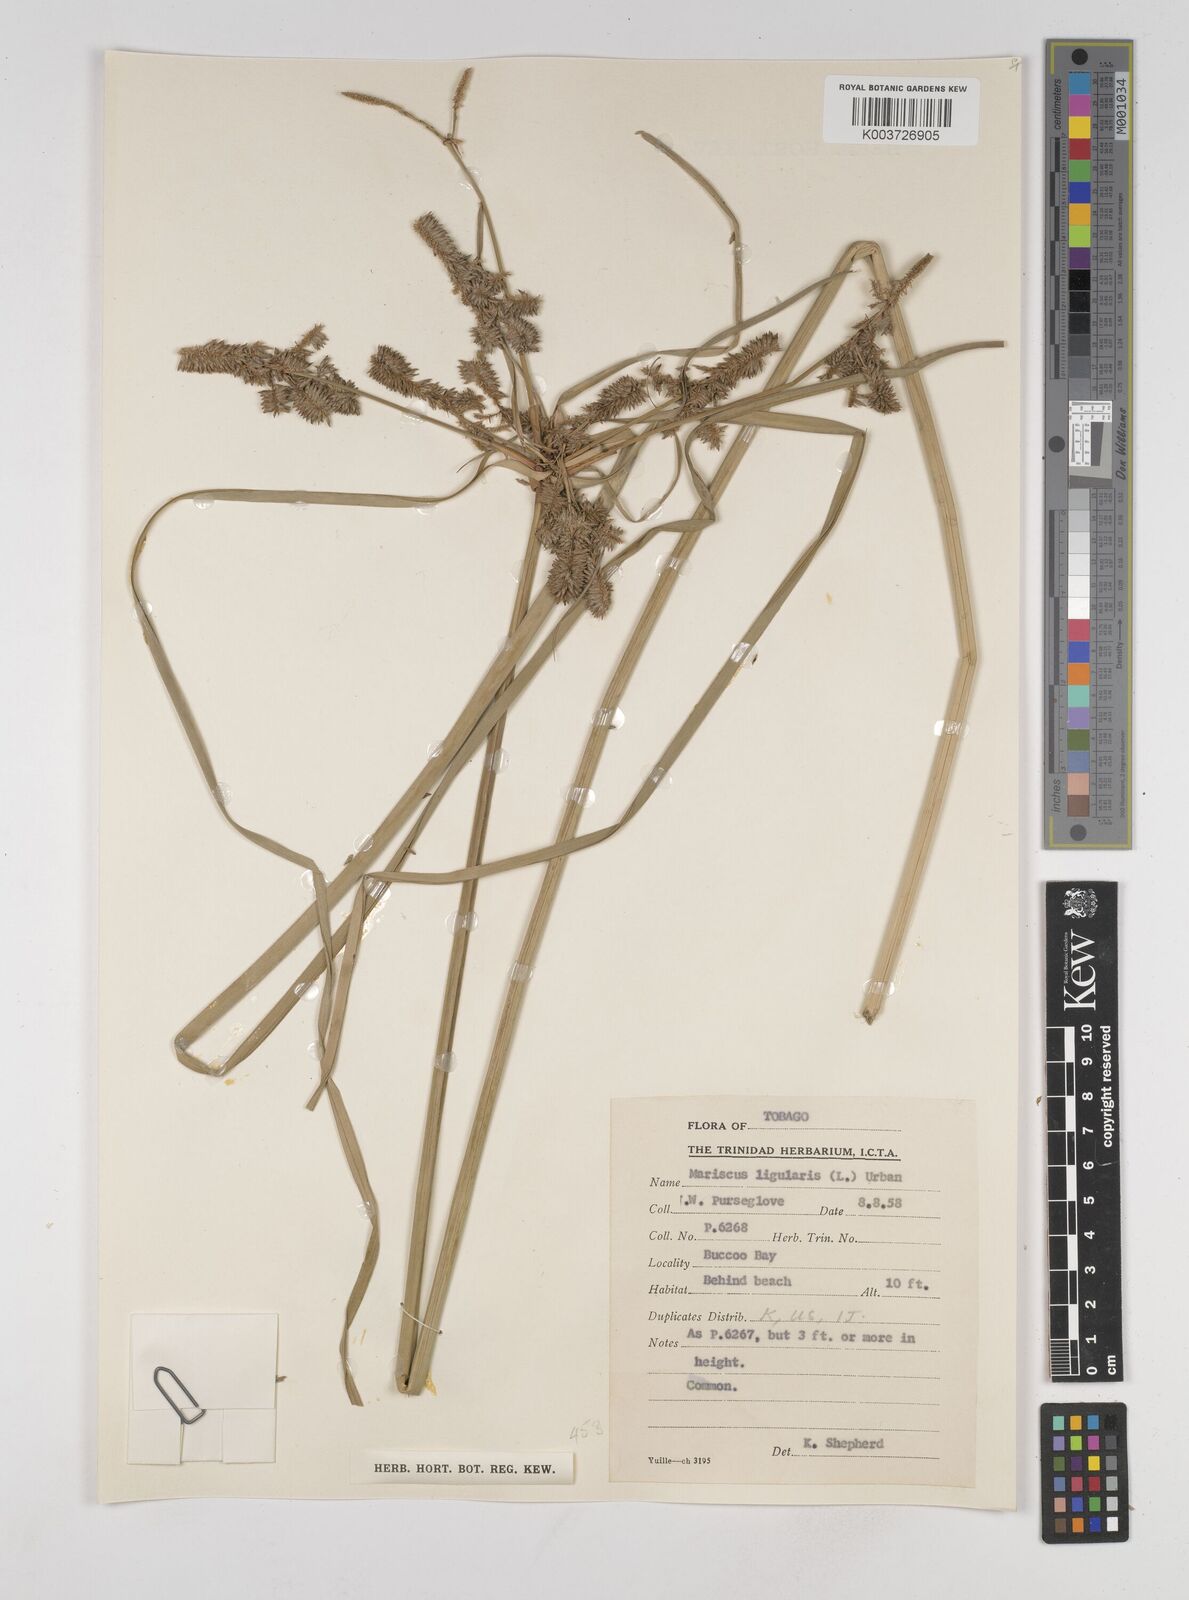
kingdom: Plantae
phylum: Tracheophyta
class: Liliopsida
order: Poales
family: Cyperaceae
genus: Cyperus
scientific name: Cyperus ligularis
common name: Swamp flat sedge
